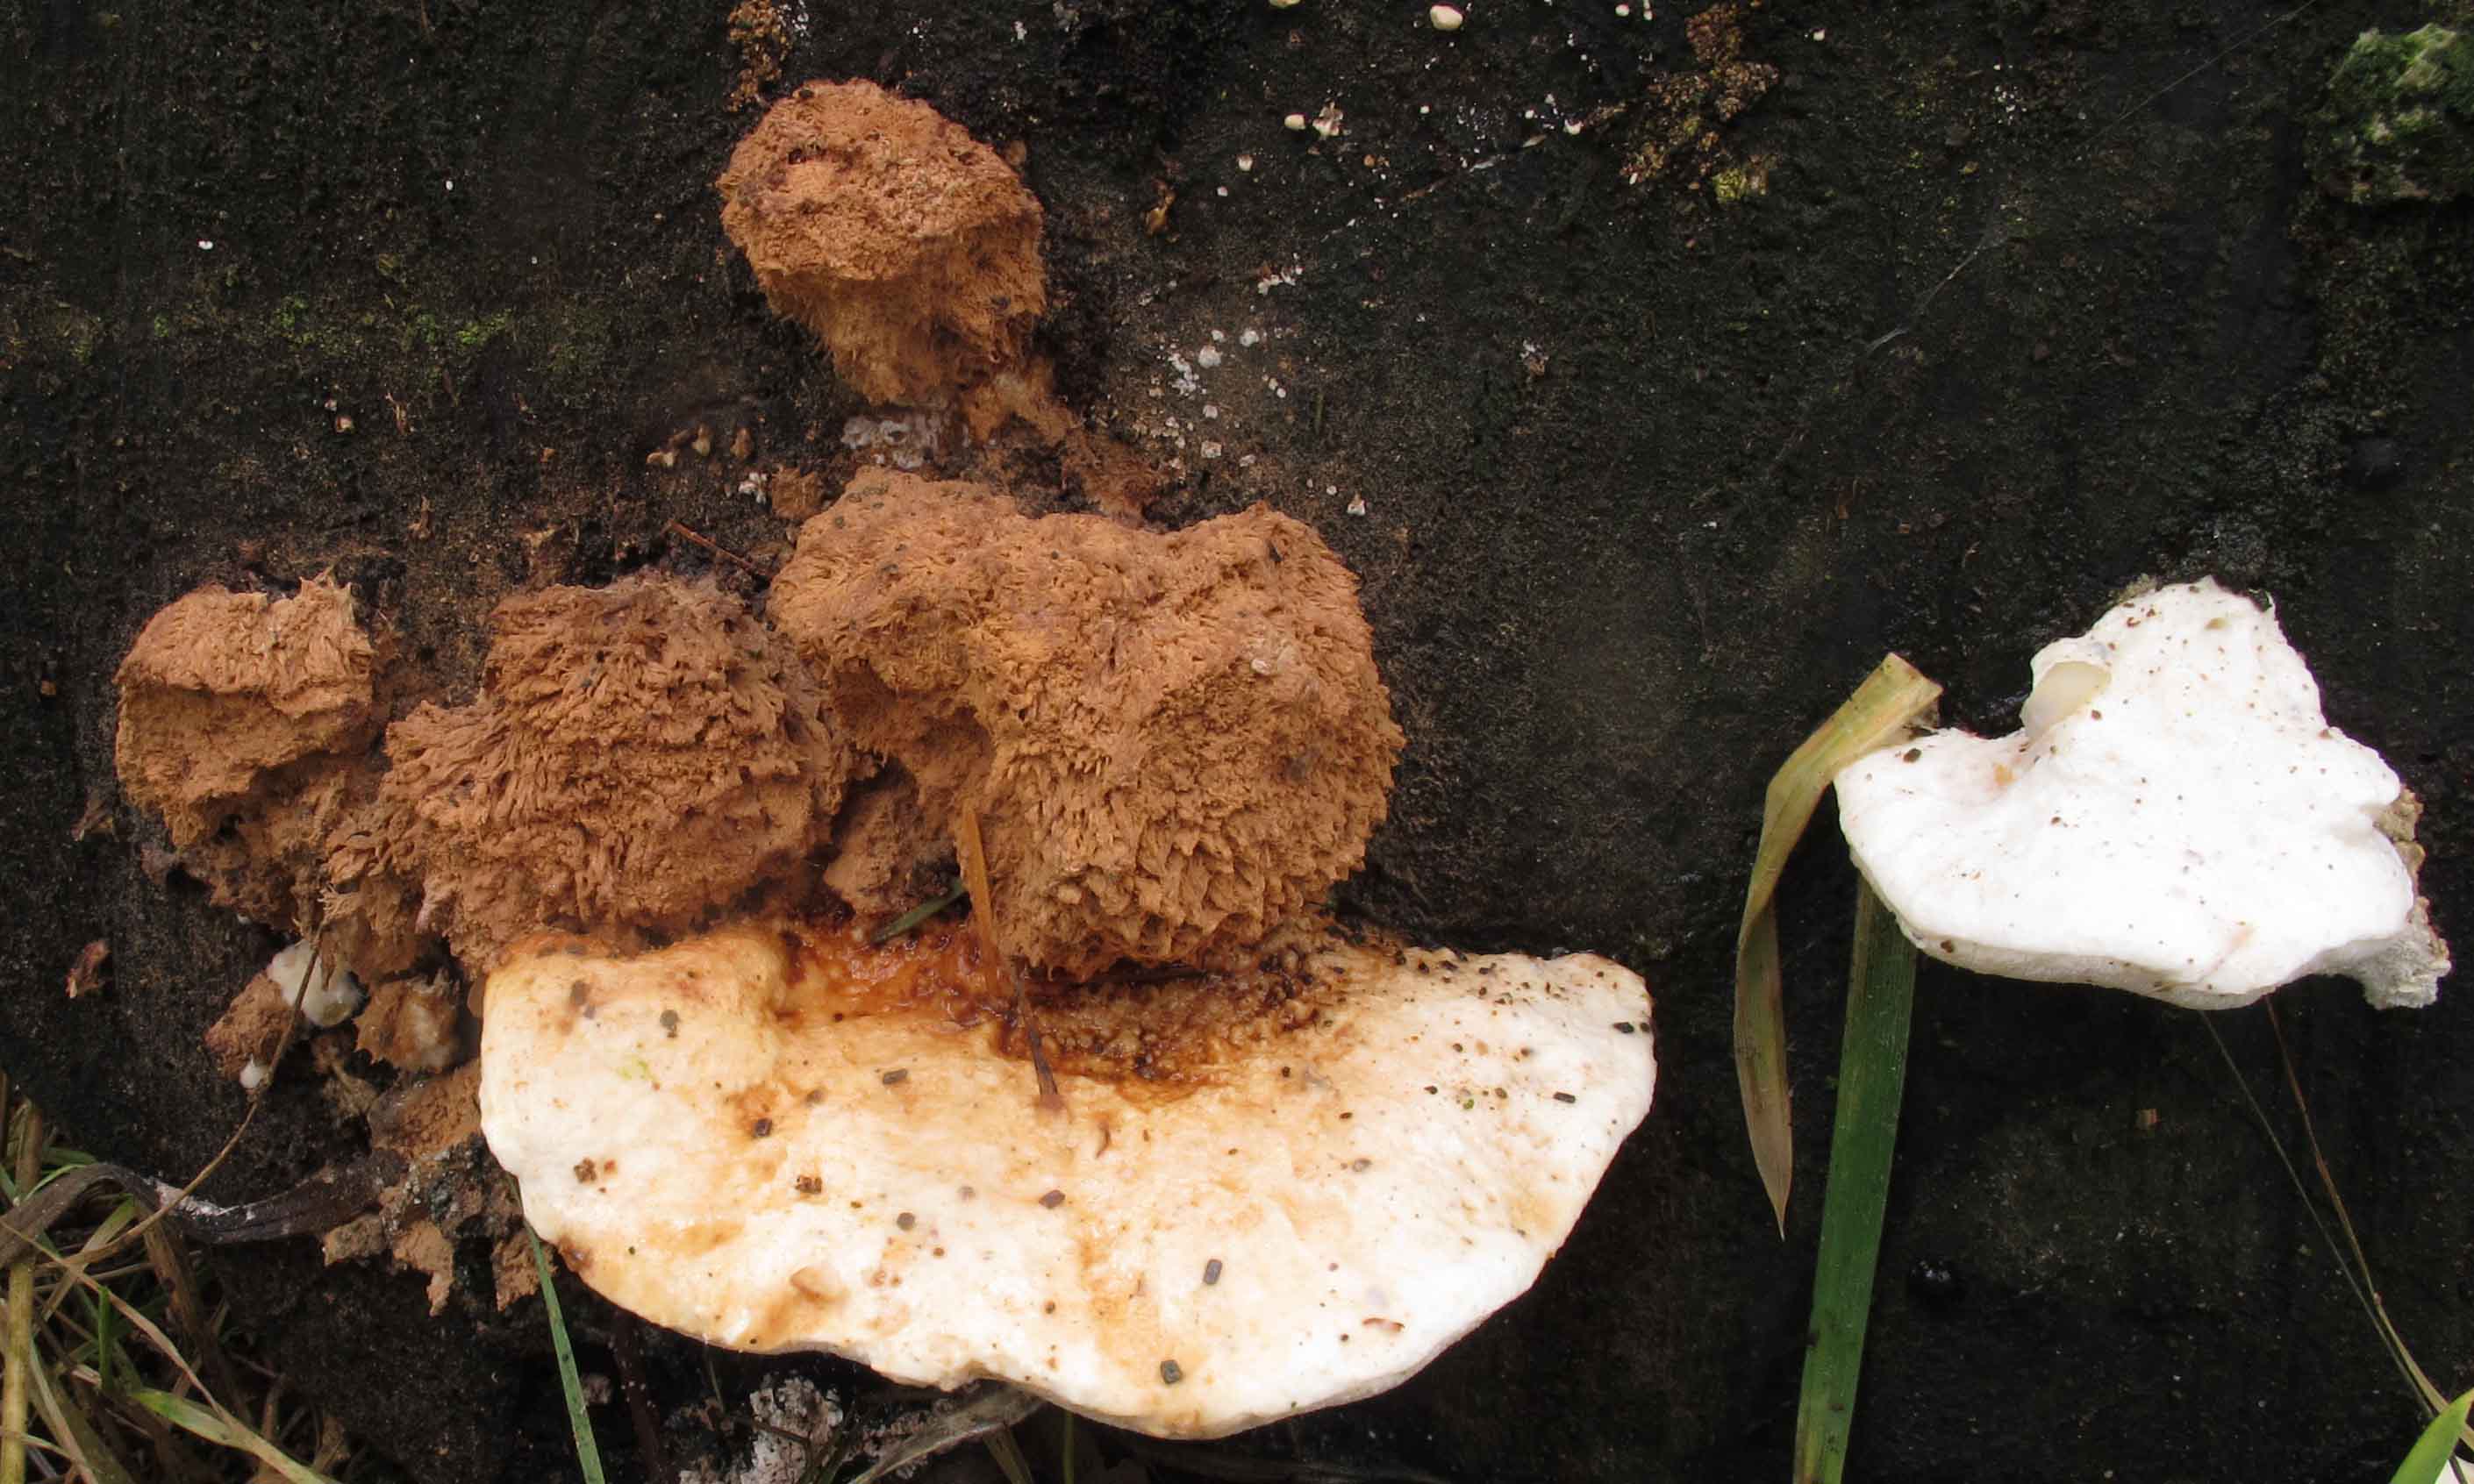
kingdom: Fungi
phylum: Basidiomycota
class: Agaricomycetes
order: Polyporales
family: Dacryobolaceae
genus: Postia
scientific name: Postia ptychogaster
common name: støvende kødporesvamp
